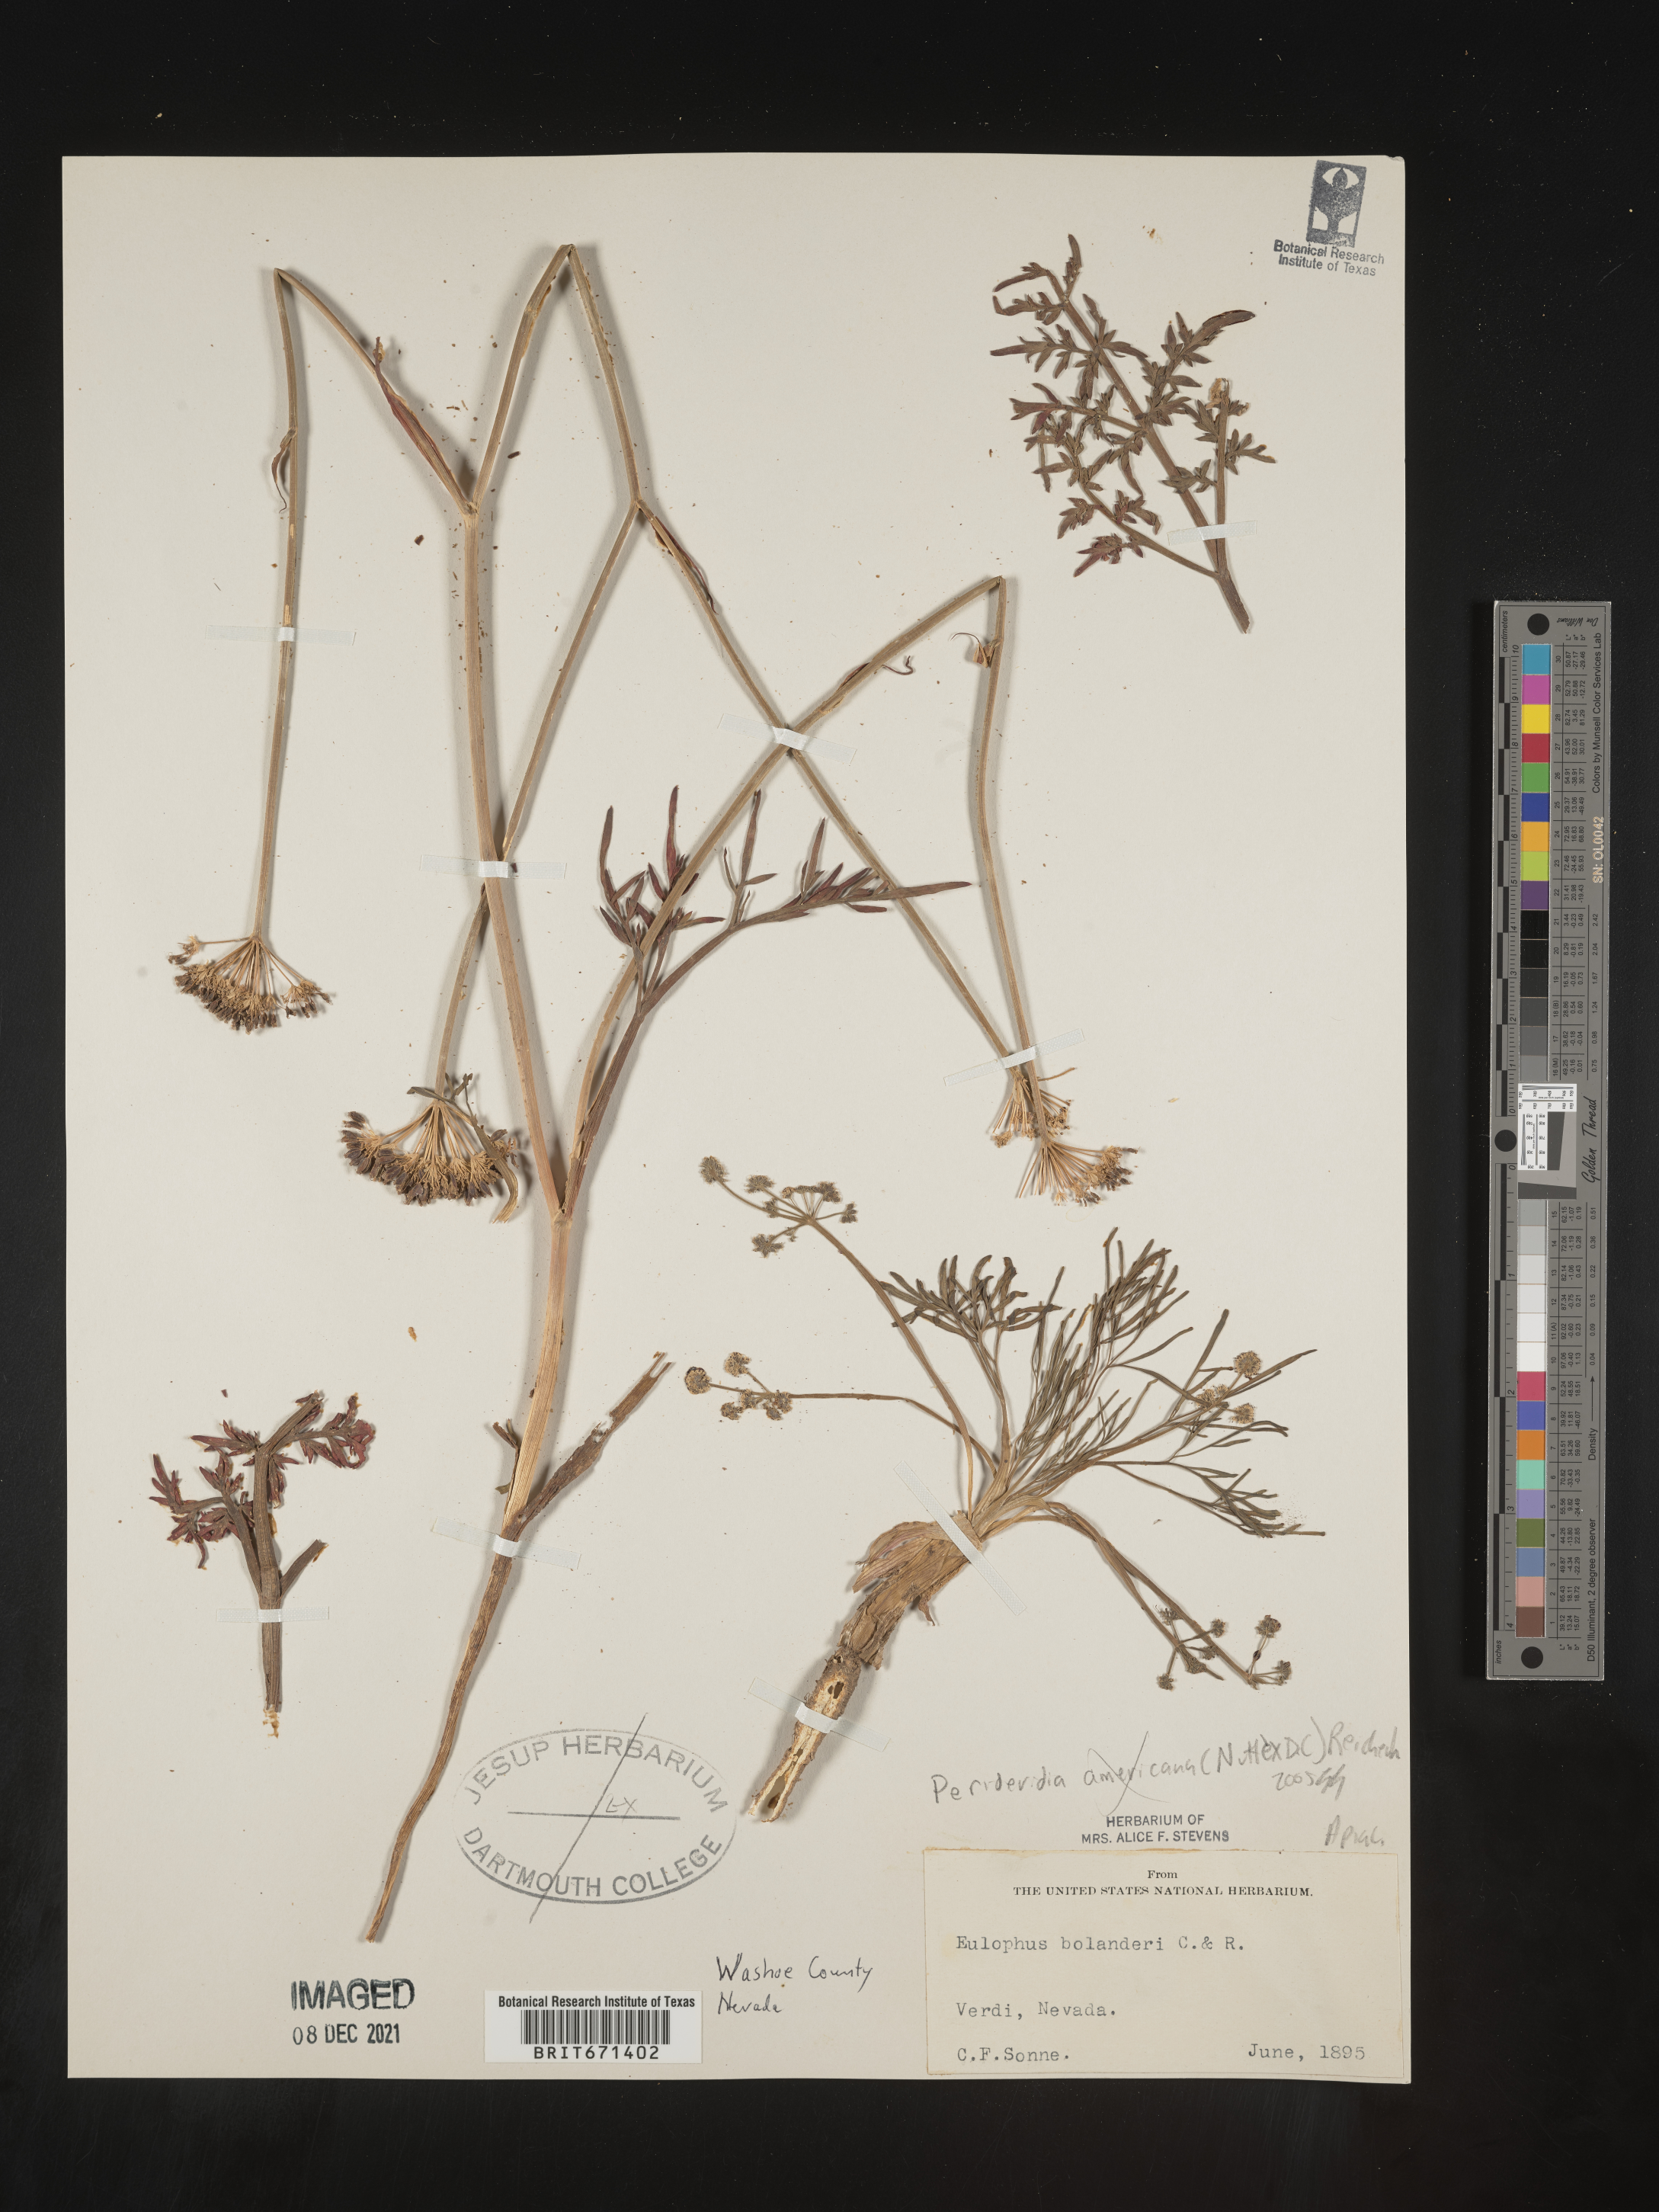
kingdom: Plantae
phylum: Tracheophyta
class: Magnoliopsida
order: Apiales
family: Apiaceae
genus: Perideridia
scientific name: Perideridia bolanderi
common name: Olasi
